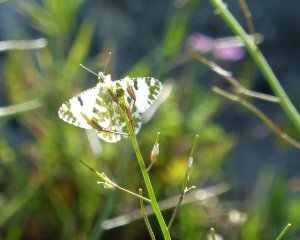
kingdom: Animalia
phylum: Arthropoda
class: Insecta
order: Lepidoptera
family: Pieridae
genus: Euchloe
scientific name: Euchloe hyantis
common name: California Marble
